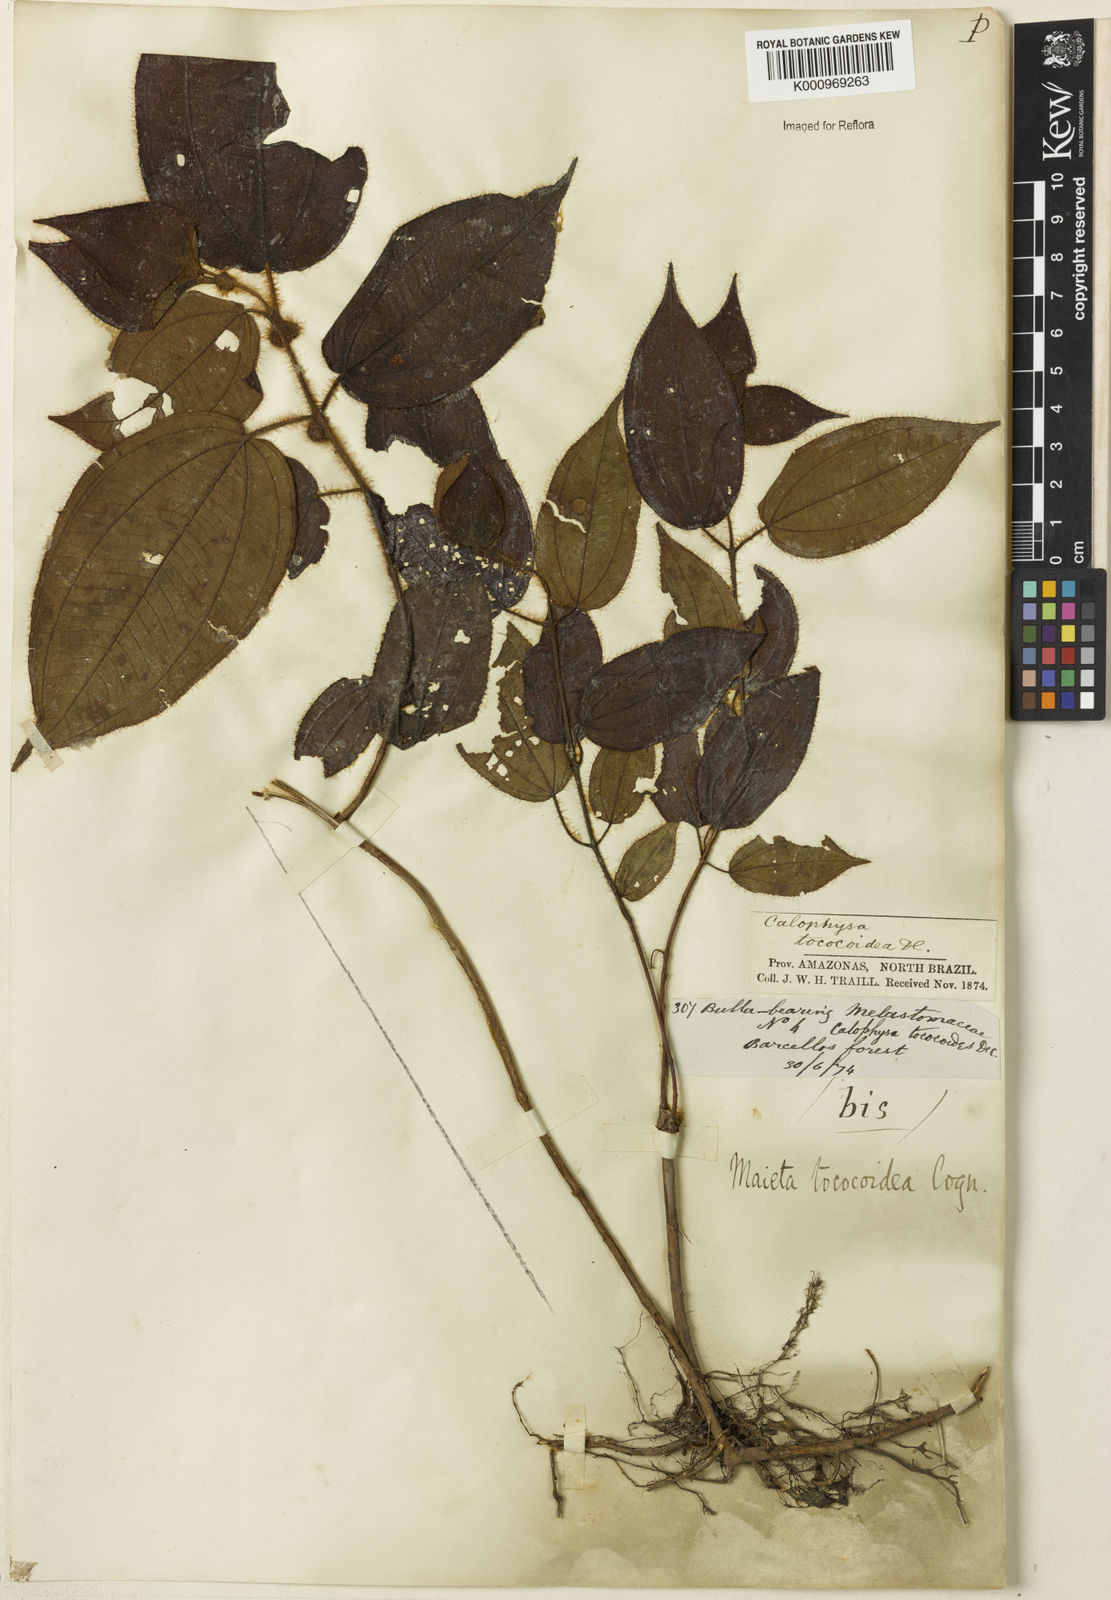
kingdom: Plantae
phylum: Tracheophyta
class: Magnoliopsida
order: Myrtales
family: Melastomataceae
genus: Miconia
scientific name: Miconia tococoidea
